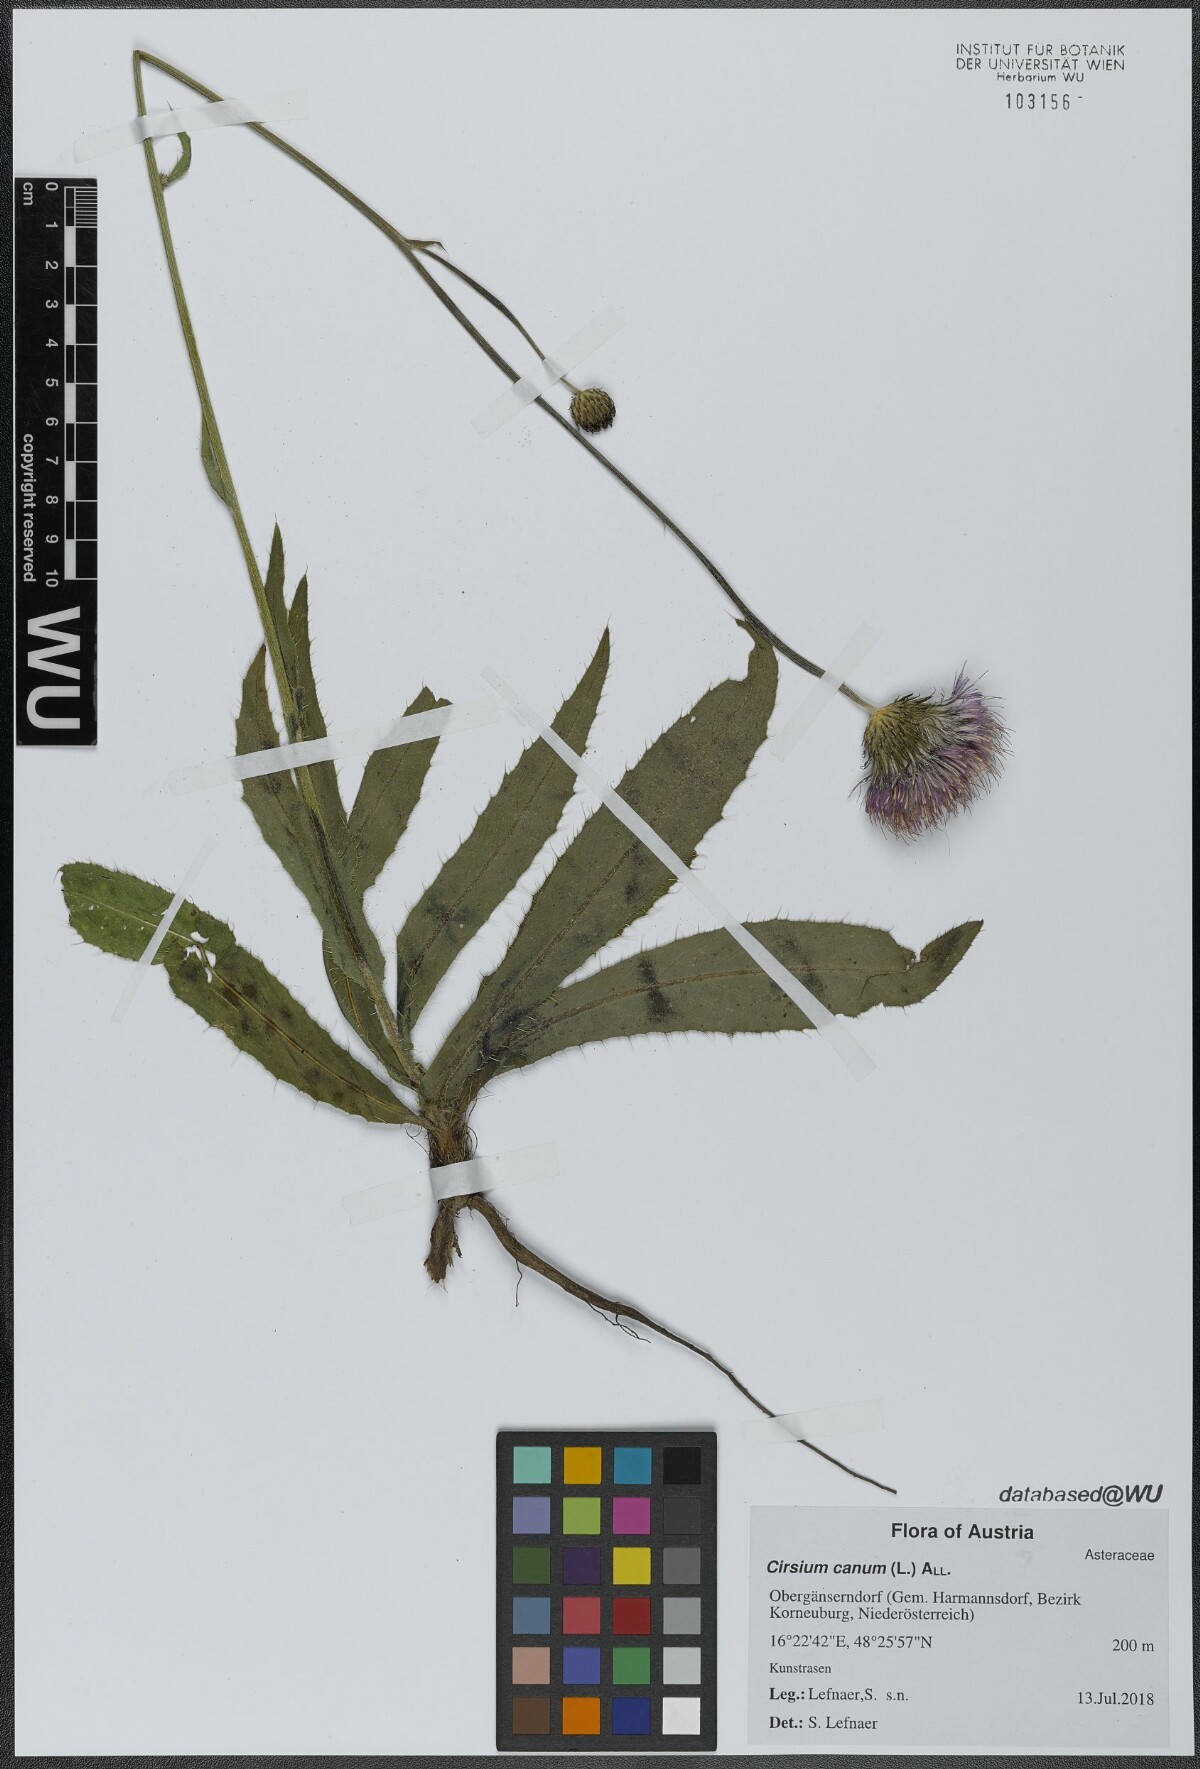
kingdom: Plantae
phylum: Tracheophyta
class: Magnoliopsida
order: Asterales
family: Asteraceae
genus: Cirsium
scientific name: Cirsium canum
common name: Queen anne's thistle
